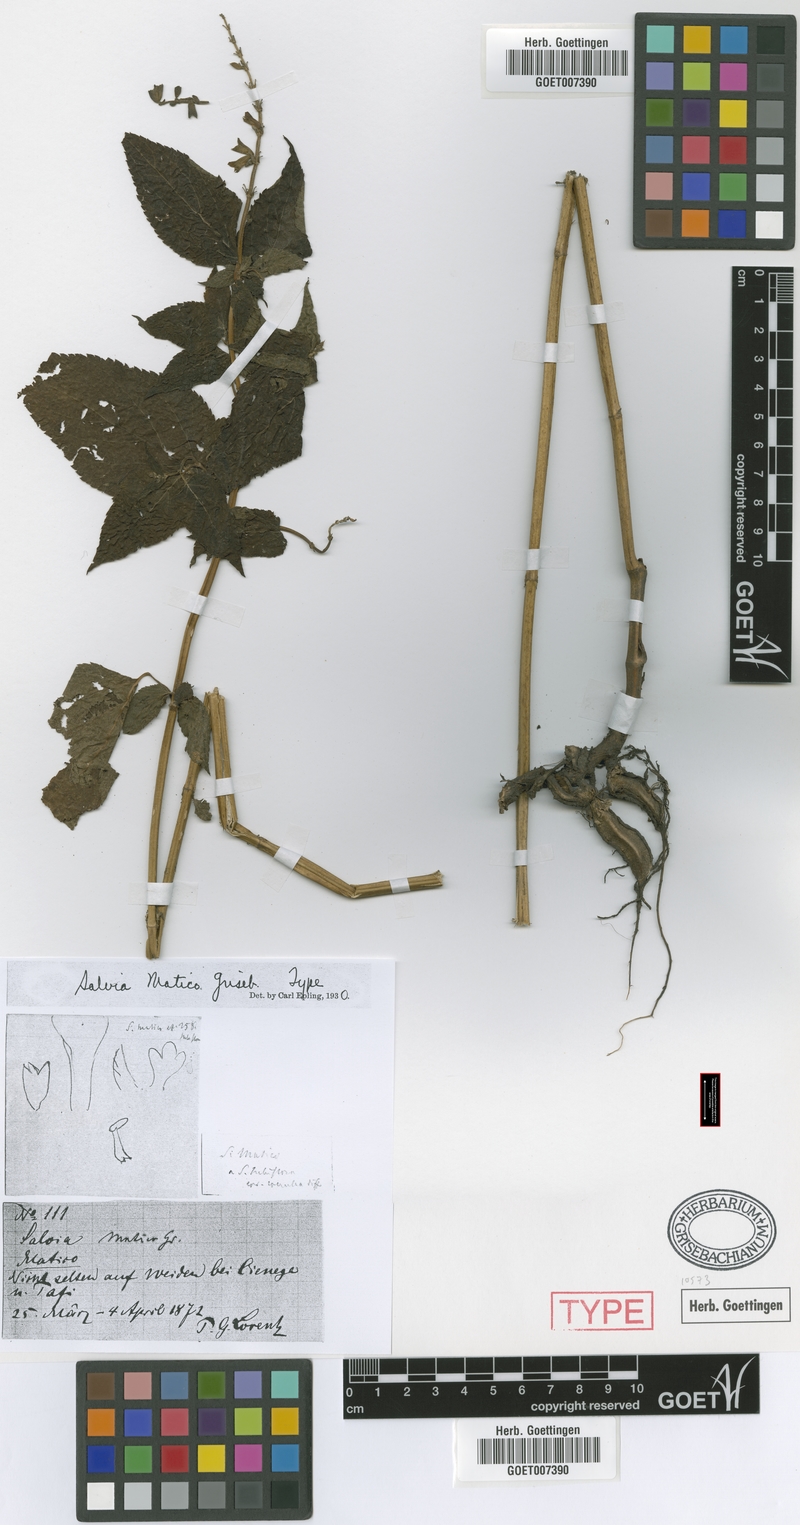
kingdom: Plantae
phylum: Tracheophyta
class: Magnoliopsida
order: Lamiales
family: Lamiaceae
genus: Salvia
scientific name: Salvia stachydifolia
